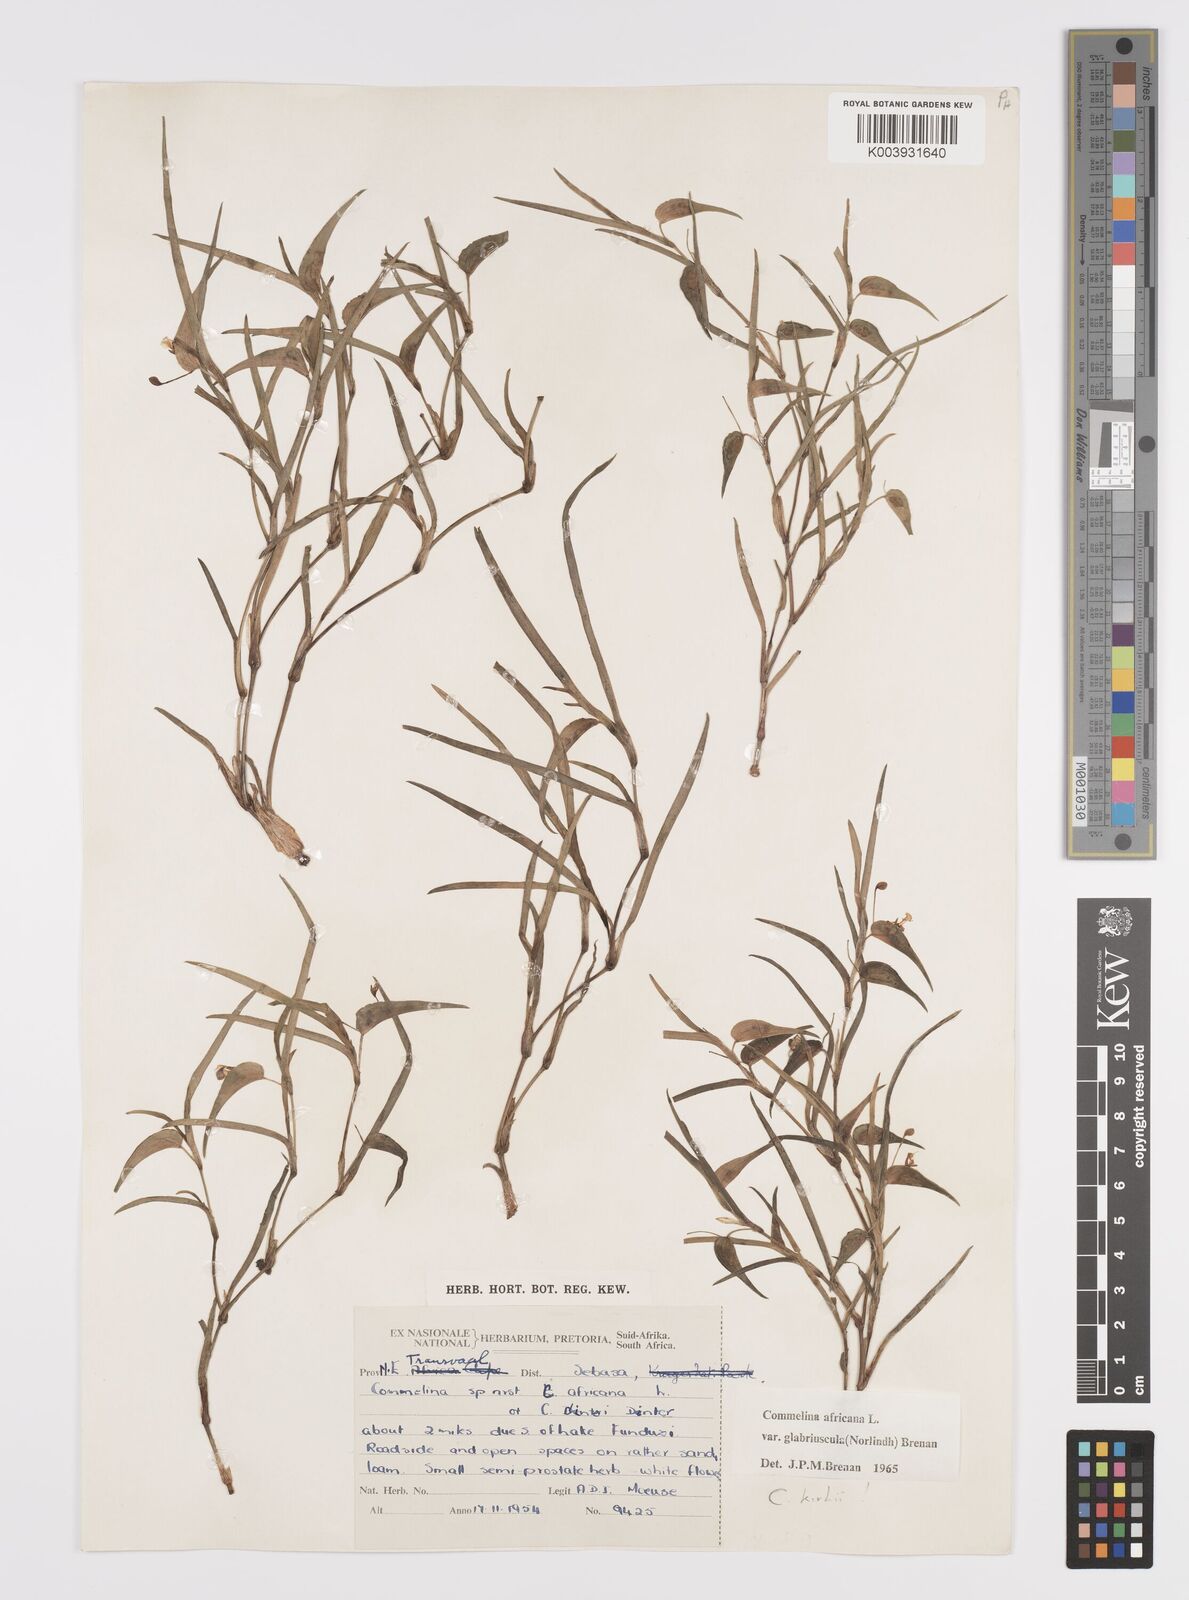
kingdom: Plantae
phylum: Tracheophyta
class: Liliopsida
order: Commelinales
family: Commelinaceae
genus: Commelina
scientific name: Commelina africana
